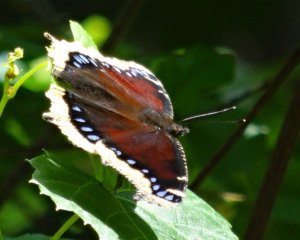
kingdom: Animalia
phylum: Arthropoda
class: Insecta
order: Lepidoptera
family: Nymphalidae
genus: Nymphalis
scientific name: Nymphalis antiopa
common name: Mourning Cloak
